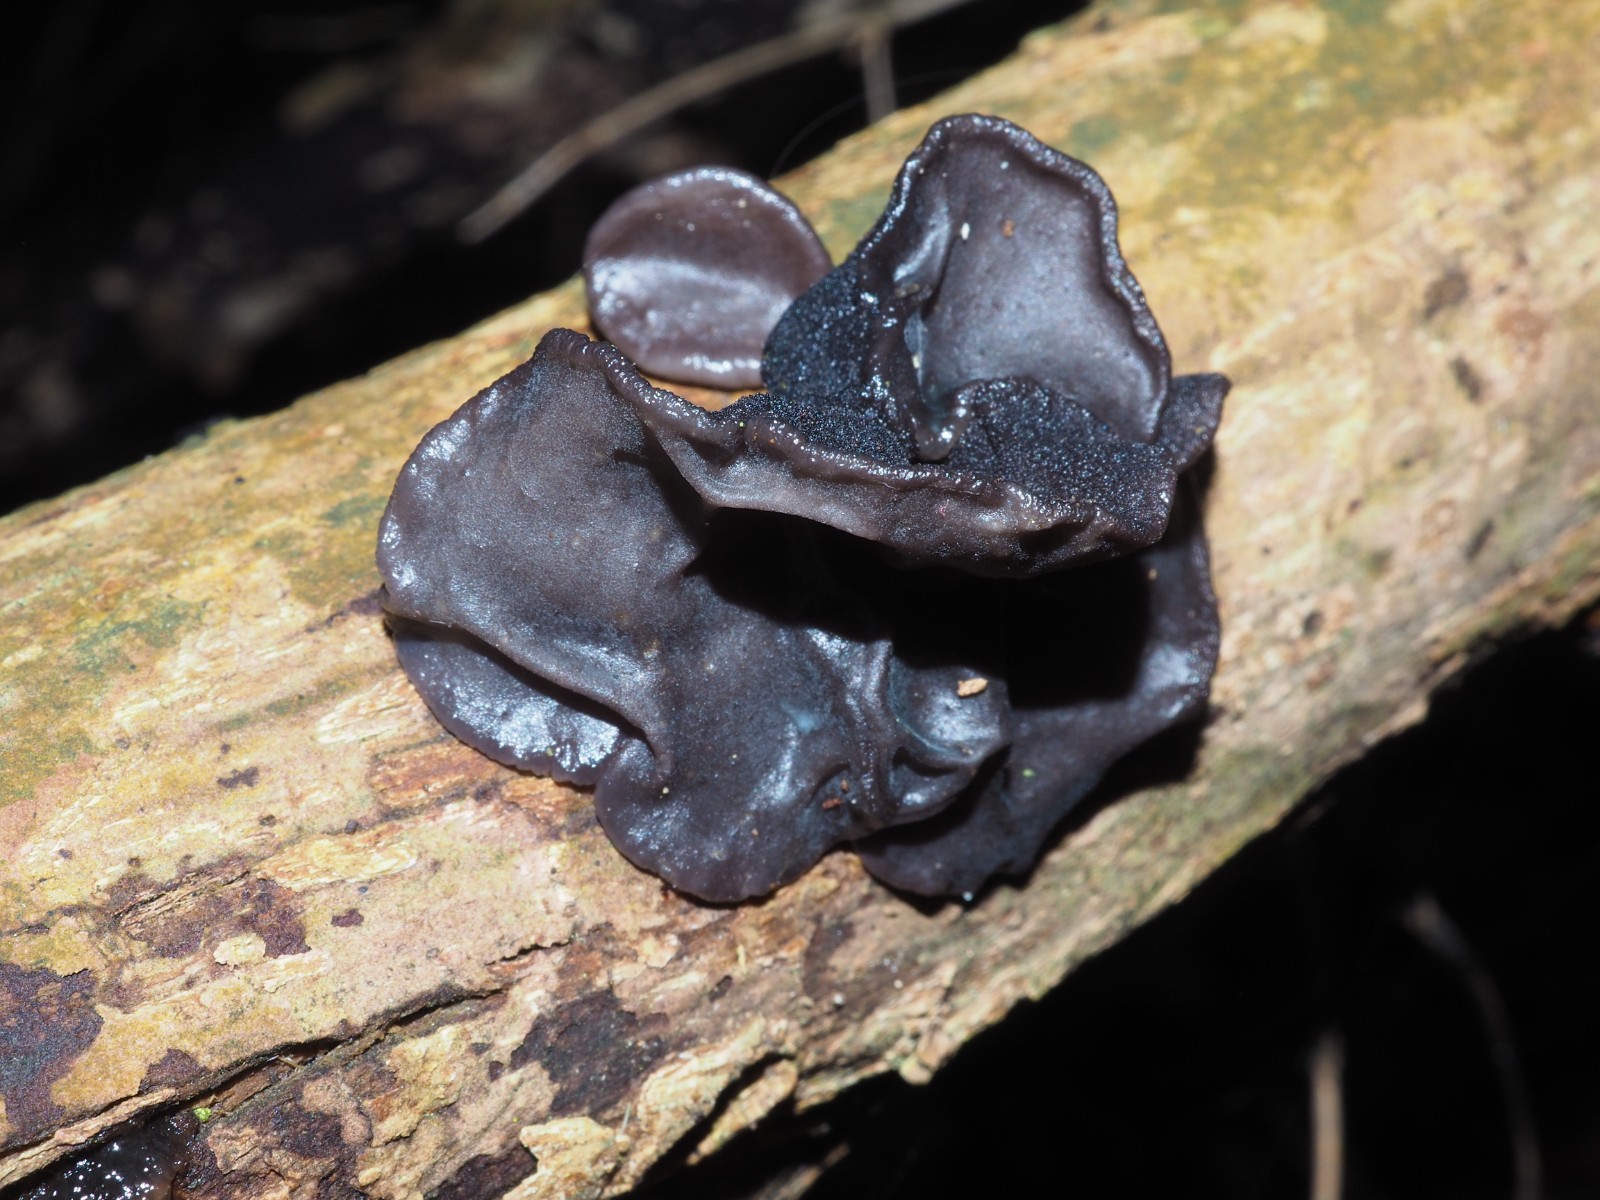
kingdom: Fungi
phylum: Basidiomycota
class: Agaricomycetes
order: Auriculariales
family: Auriculariaceae
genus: Exidia
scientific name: Exidia glandulosa
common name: ege-bævretop
